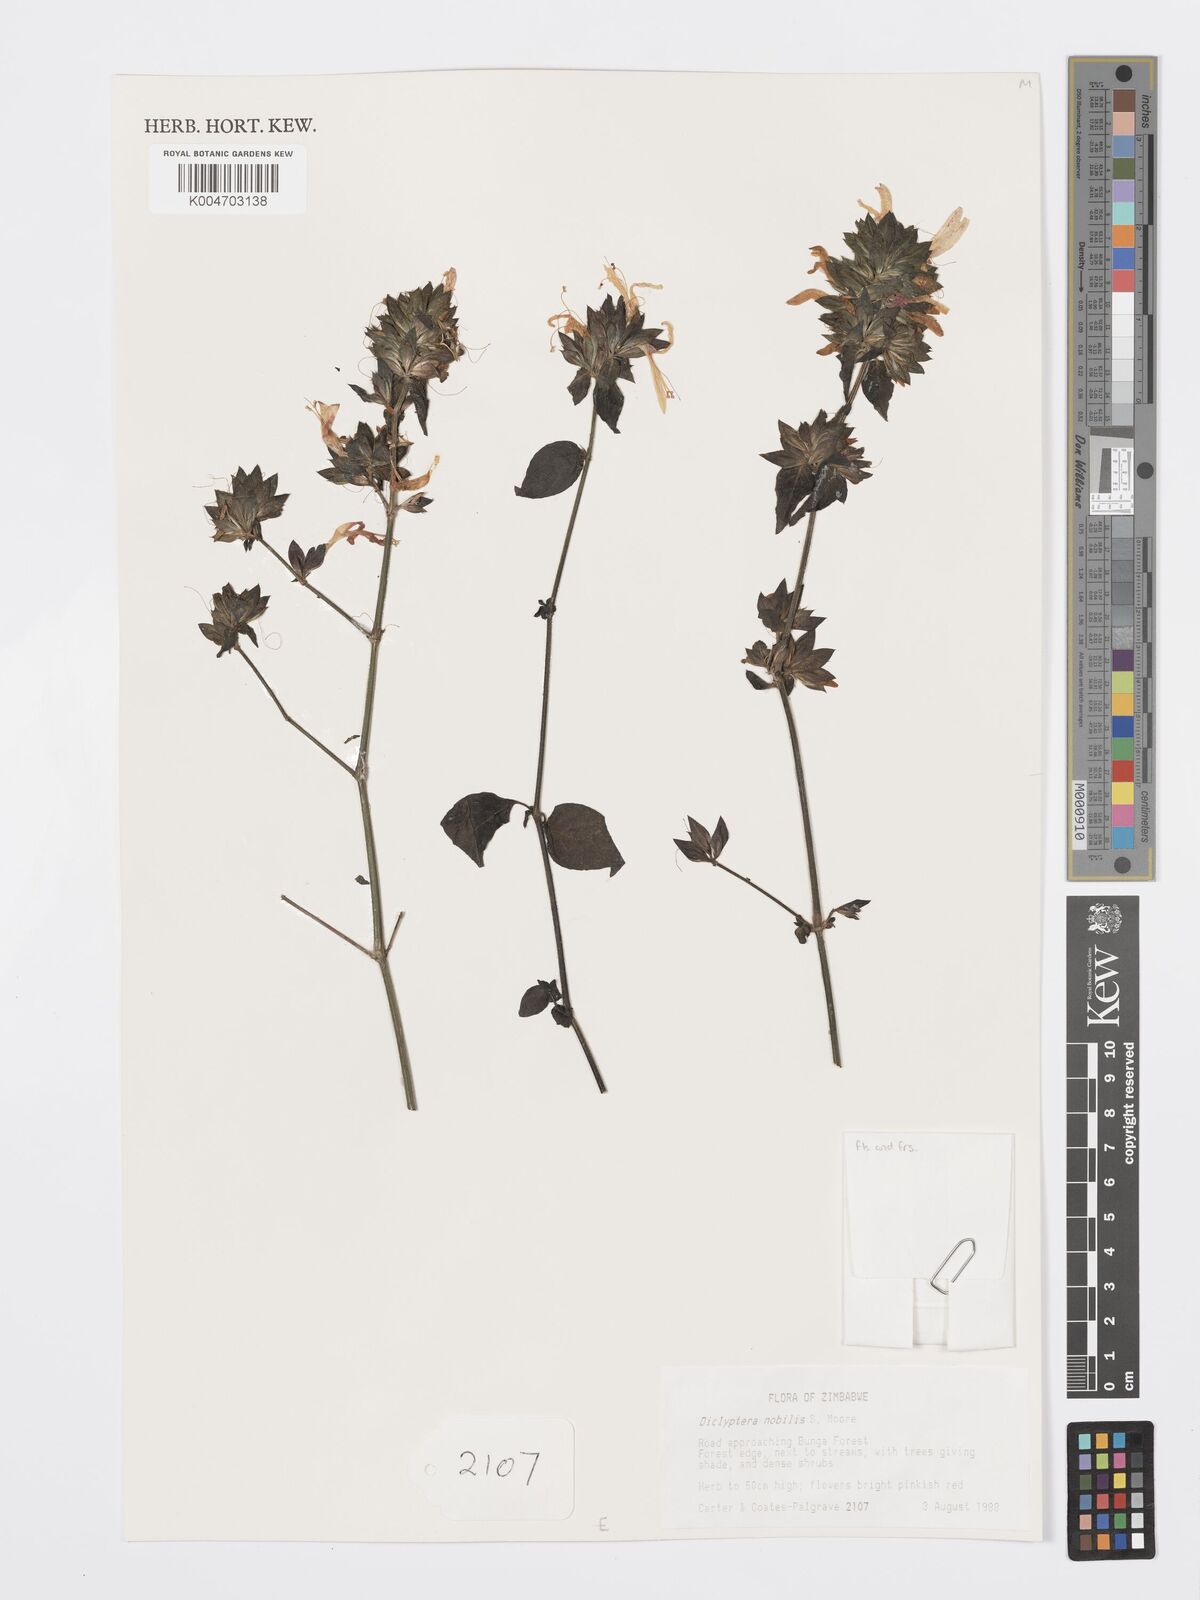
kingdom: Plantae
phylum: Tracheophyta
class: Magnoliopsida
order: Lamiales
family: Acanthaceae
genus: Dicliptera
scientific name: Dicliptera clinopodia
